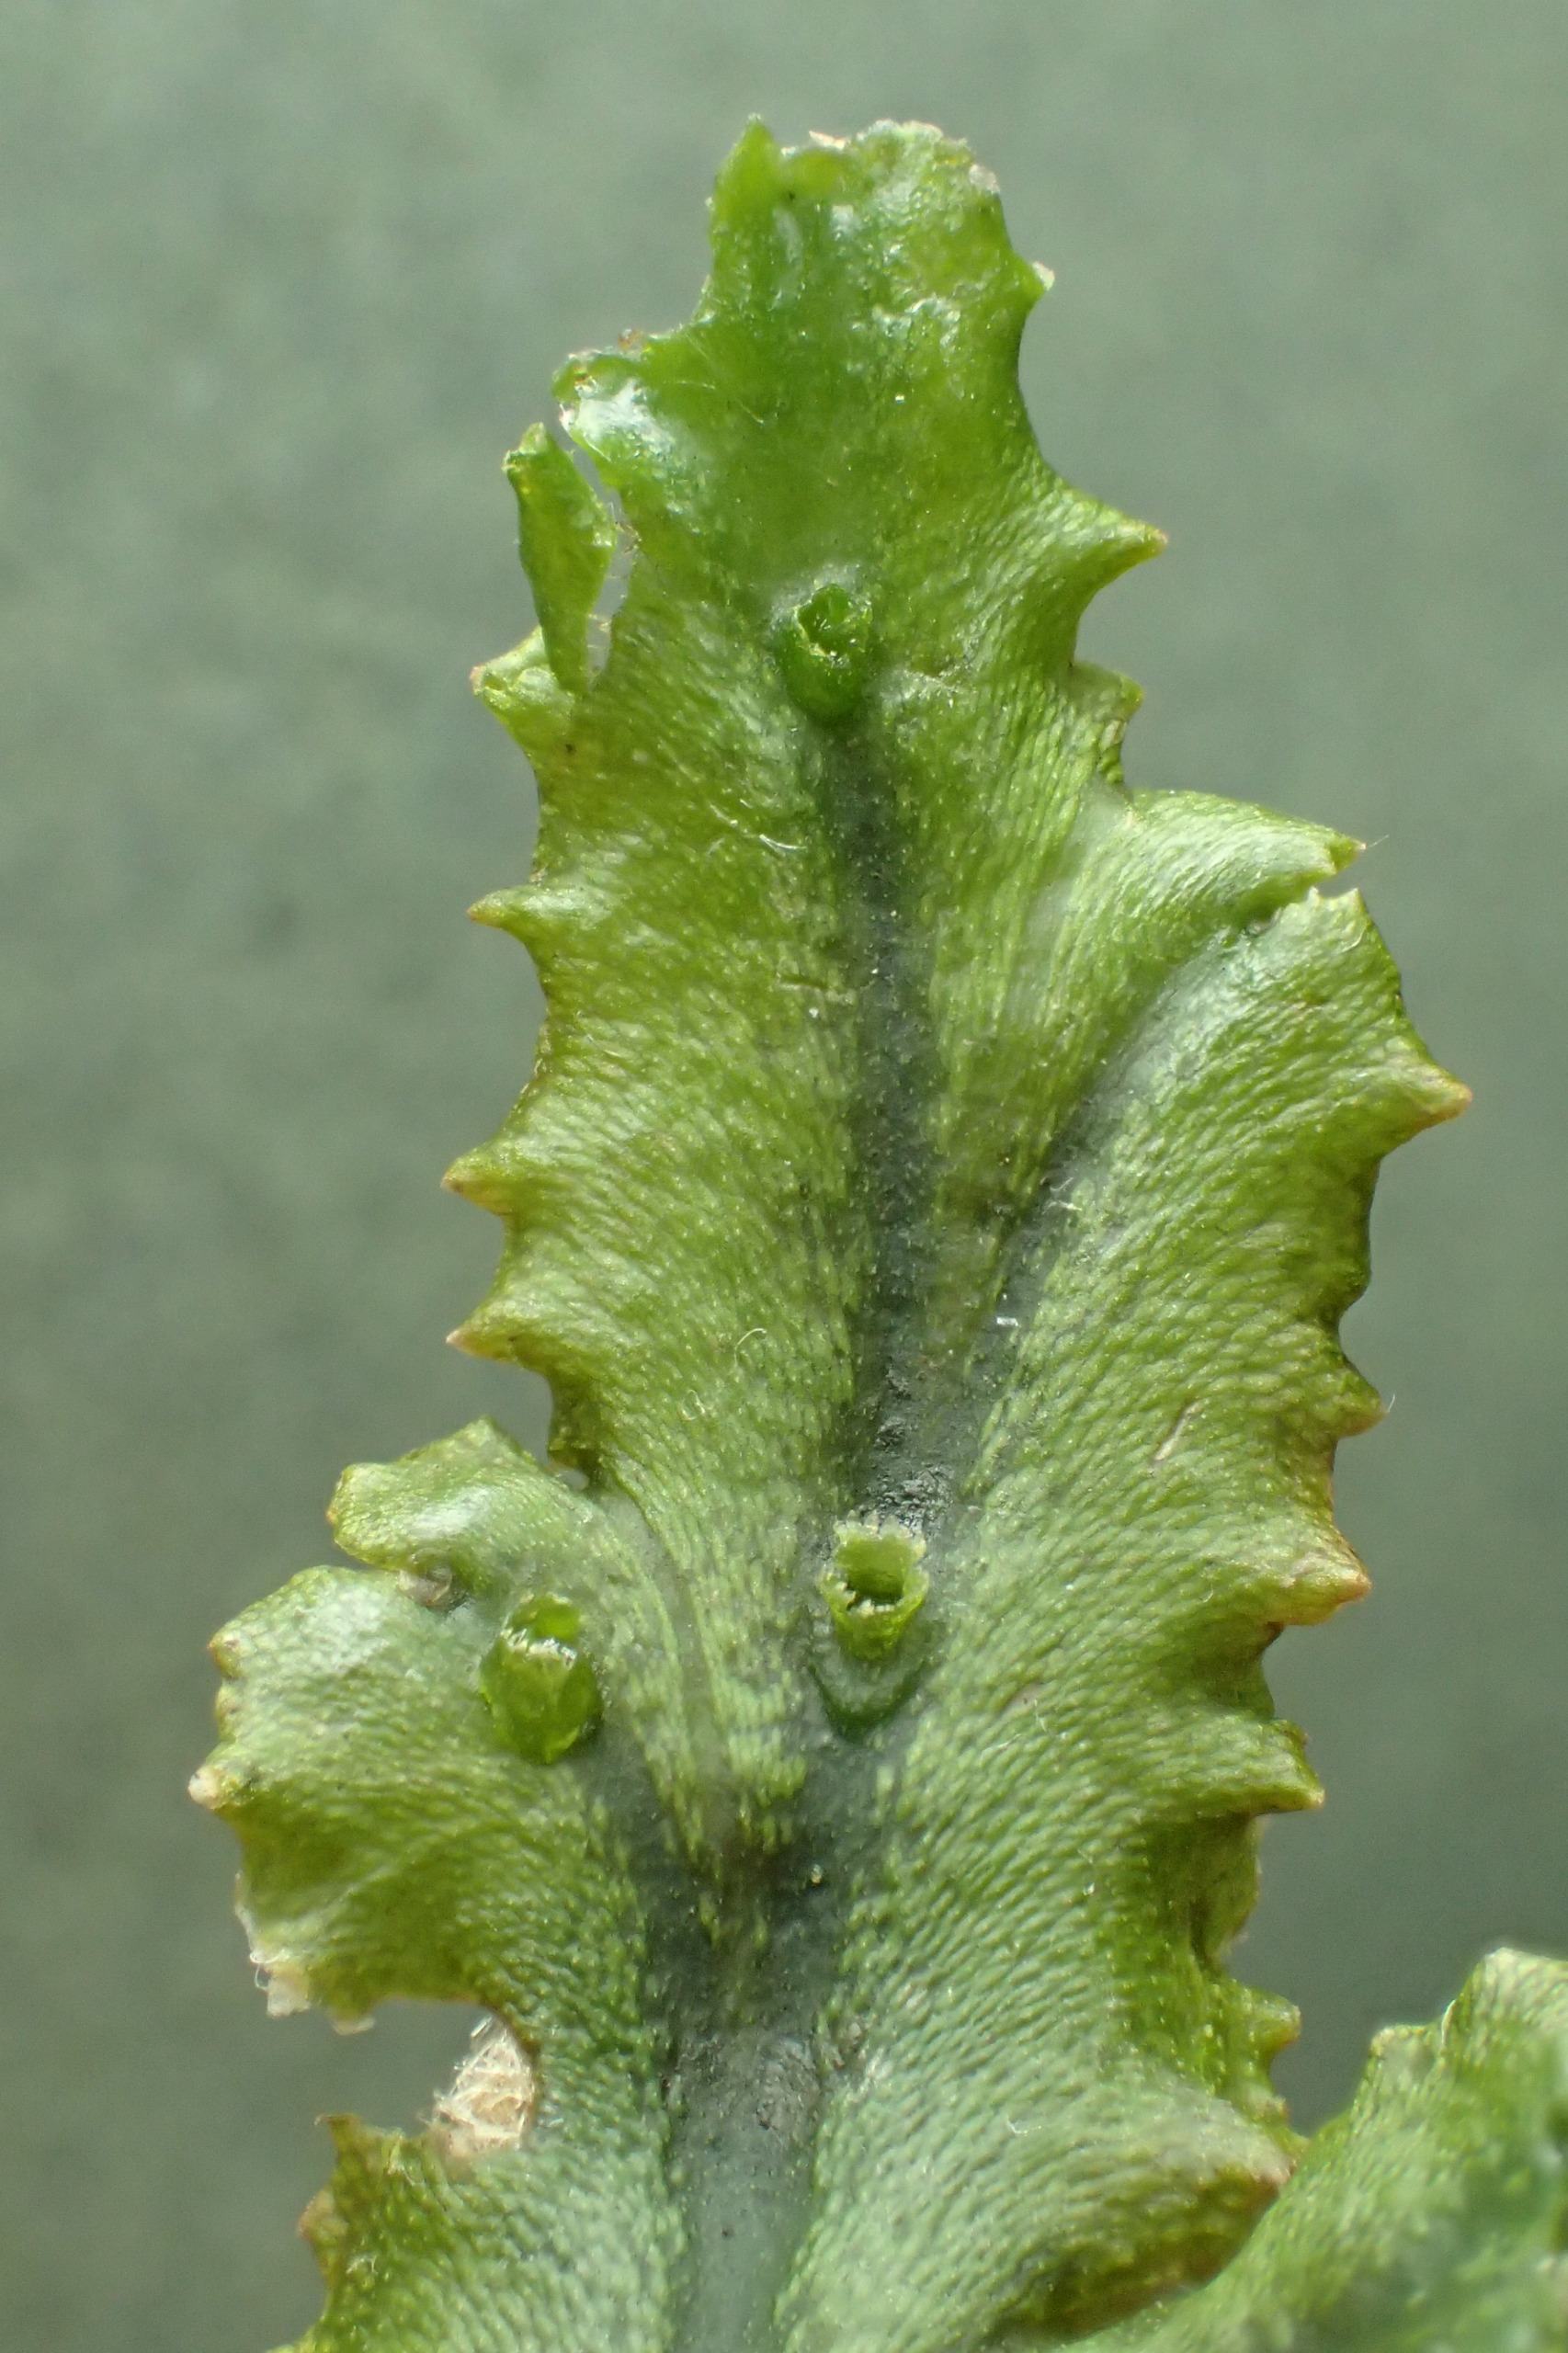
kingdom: Plantae
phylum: Marchantiophyta
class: Marchantiopsida
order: Marchantiales
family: Marchantiaceae
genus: Marchantia
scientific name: Marchantia polymorpha
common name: Mose-lungemos
